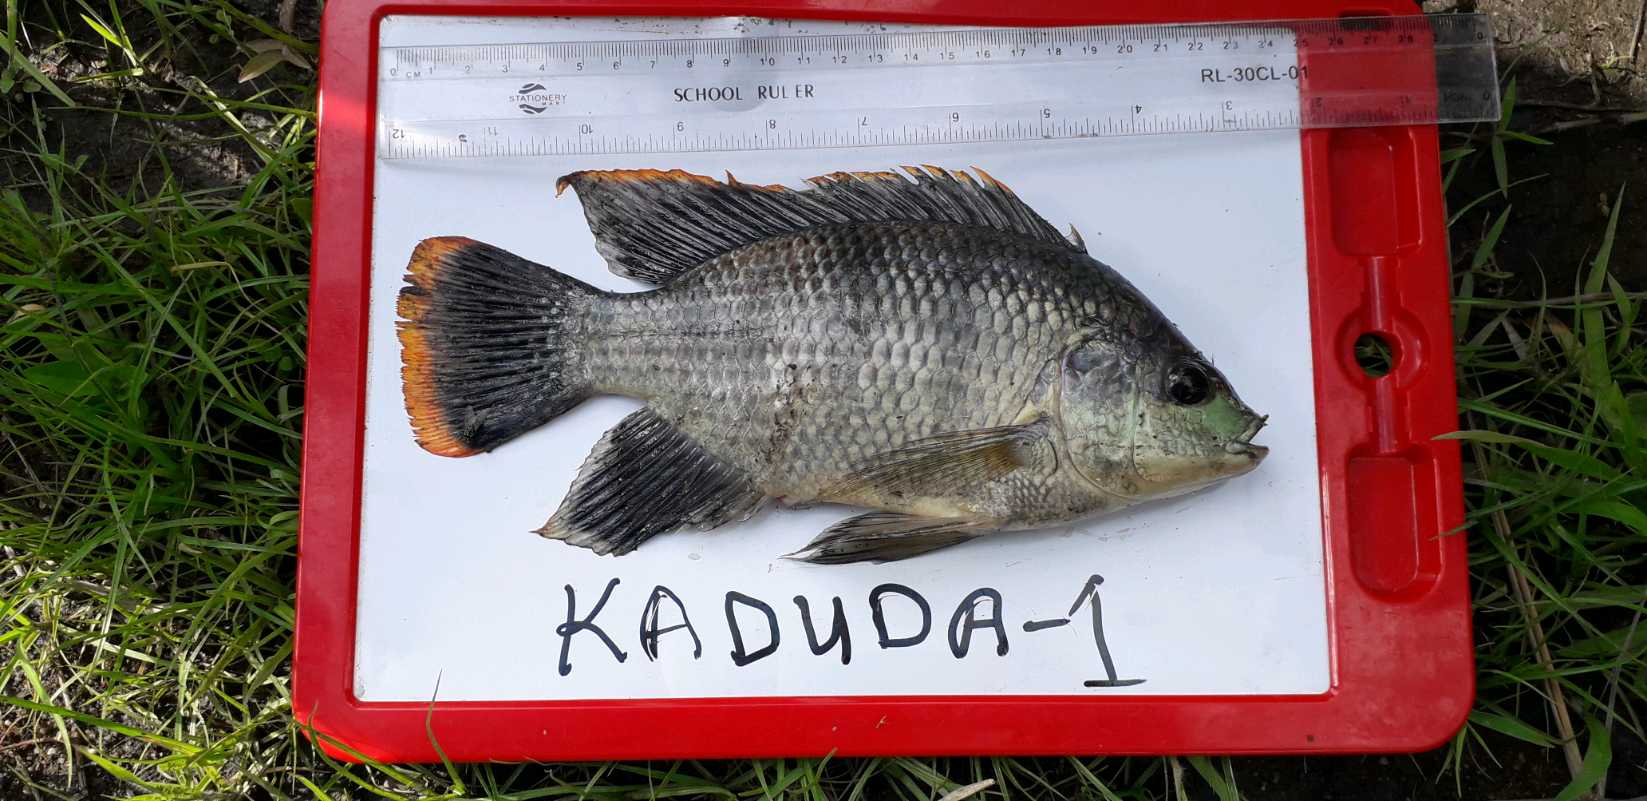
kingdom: Animalia
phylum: Chordata
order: Perciformes
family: Cichlidae
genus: Oreochromis
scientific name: Oreochromis variabilis
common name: Victoria tilapia
